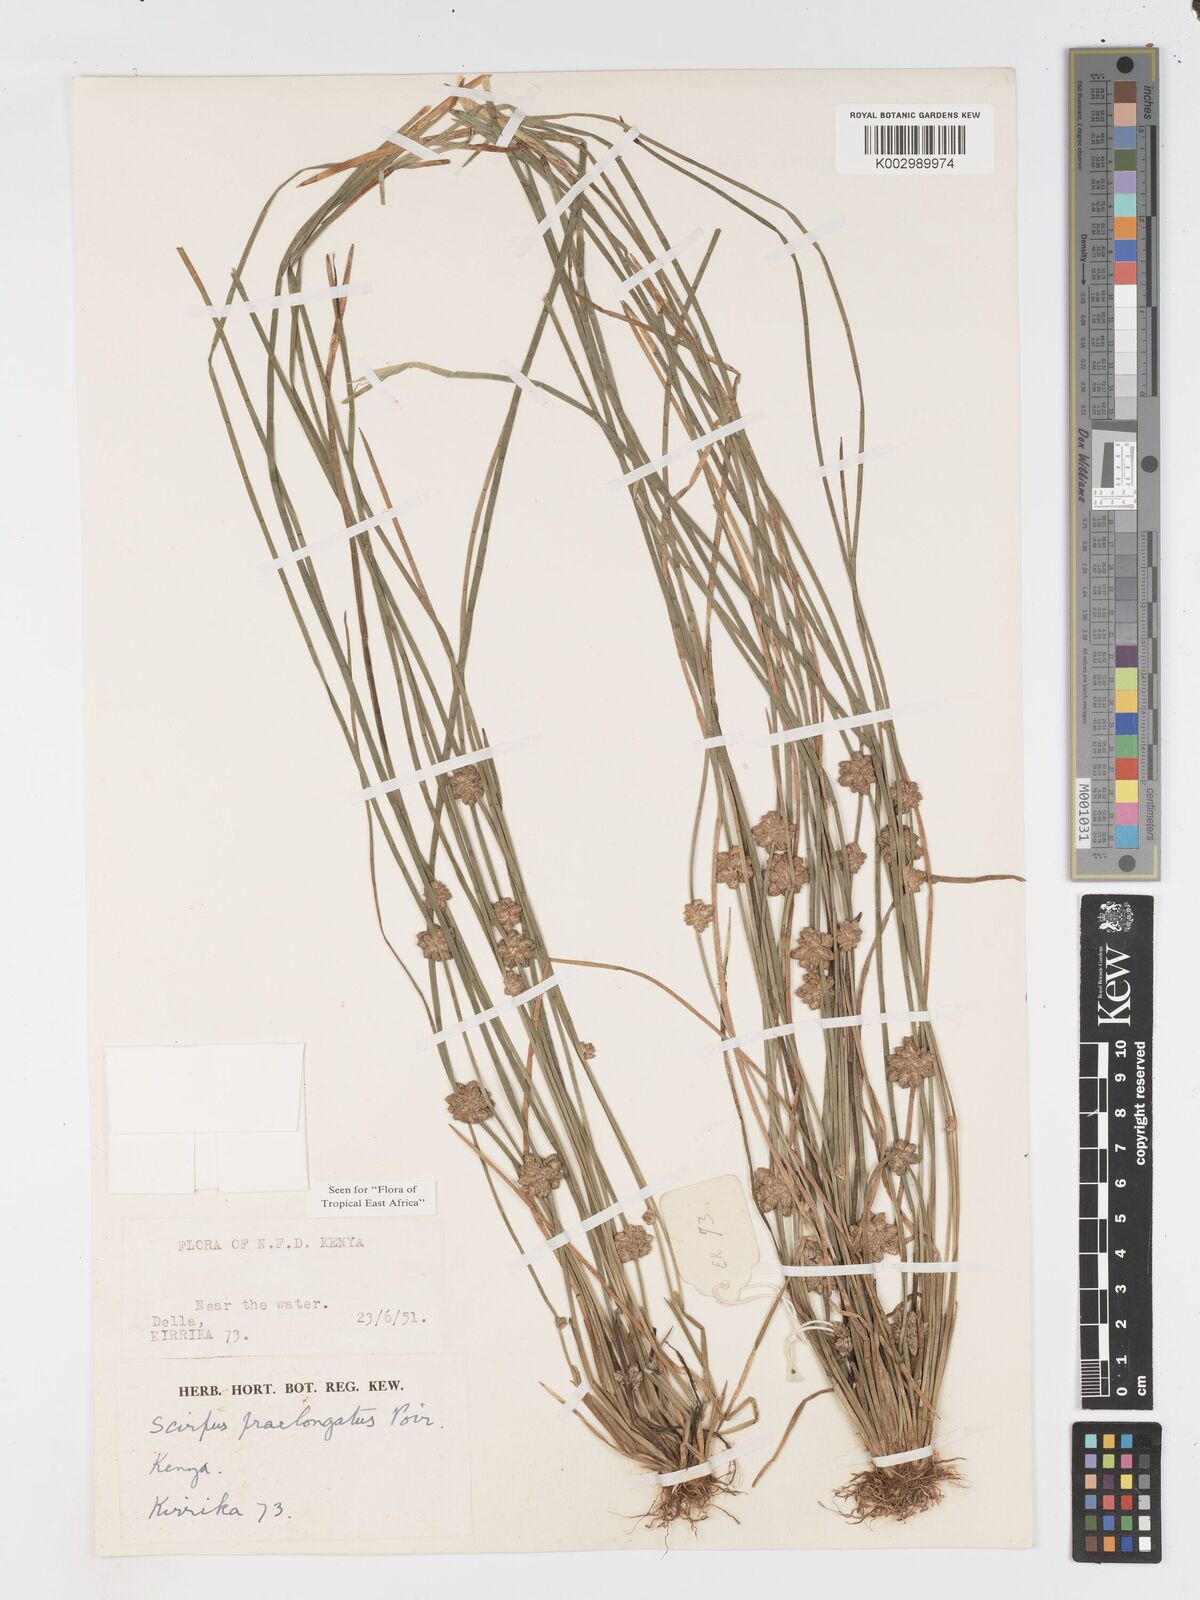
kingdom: Plantae
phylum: Tracheophyta
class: Liliopsida
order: Poales
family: Cyperaceae
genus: Schoenoplectiella
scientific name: Schoenoplectiella senegalensis
